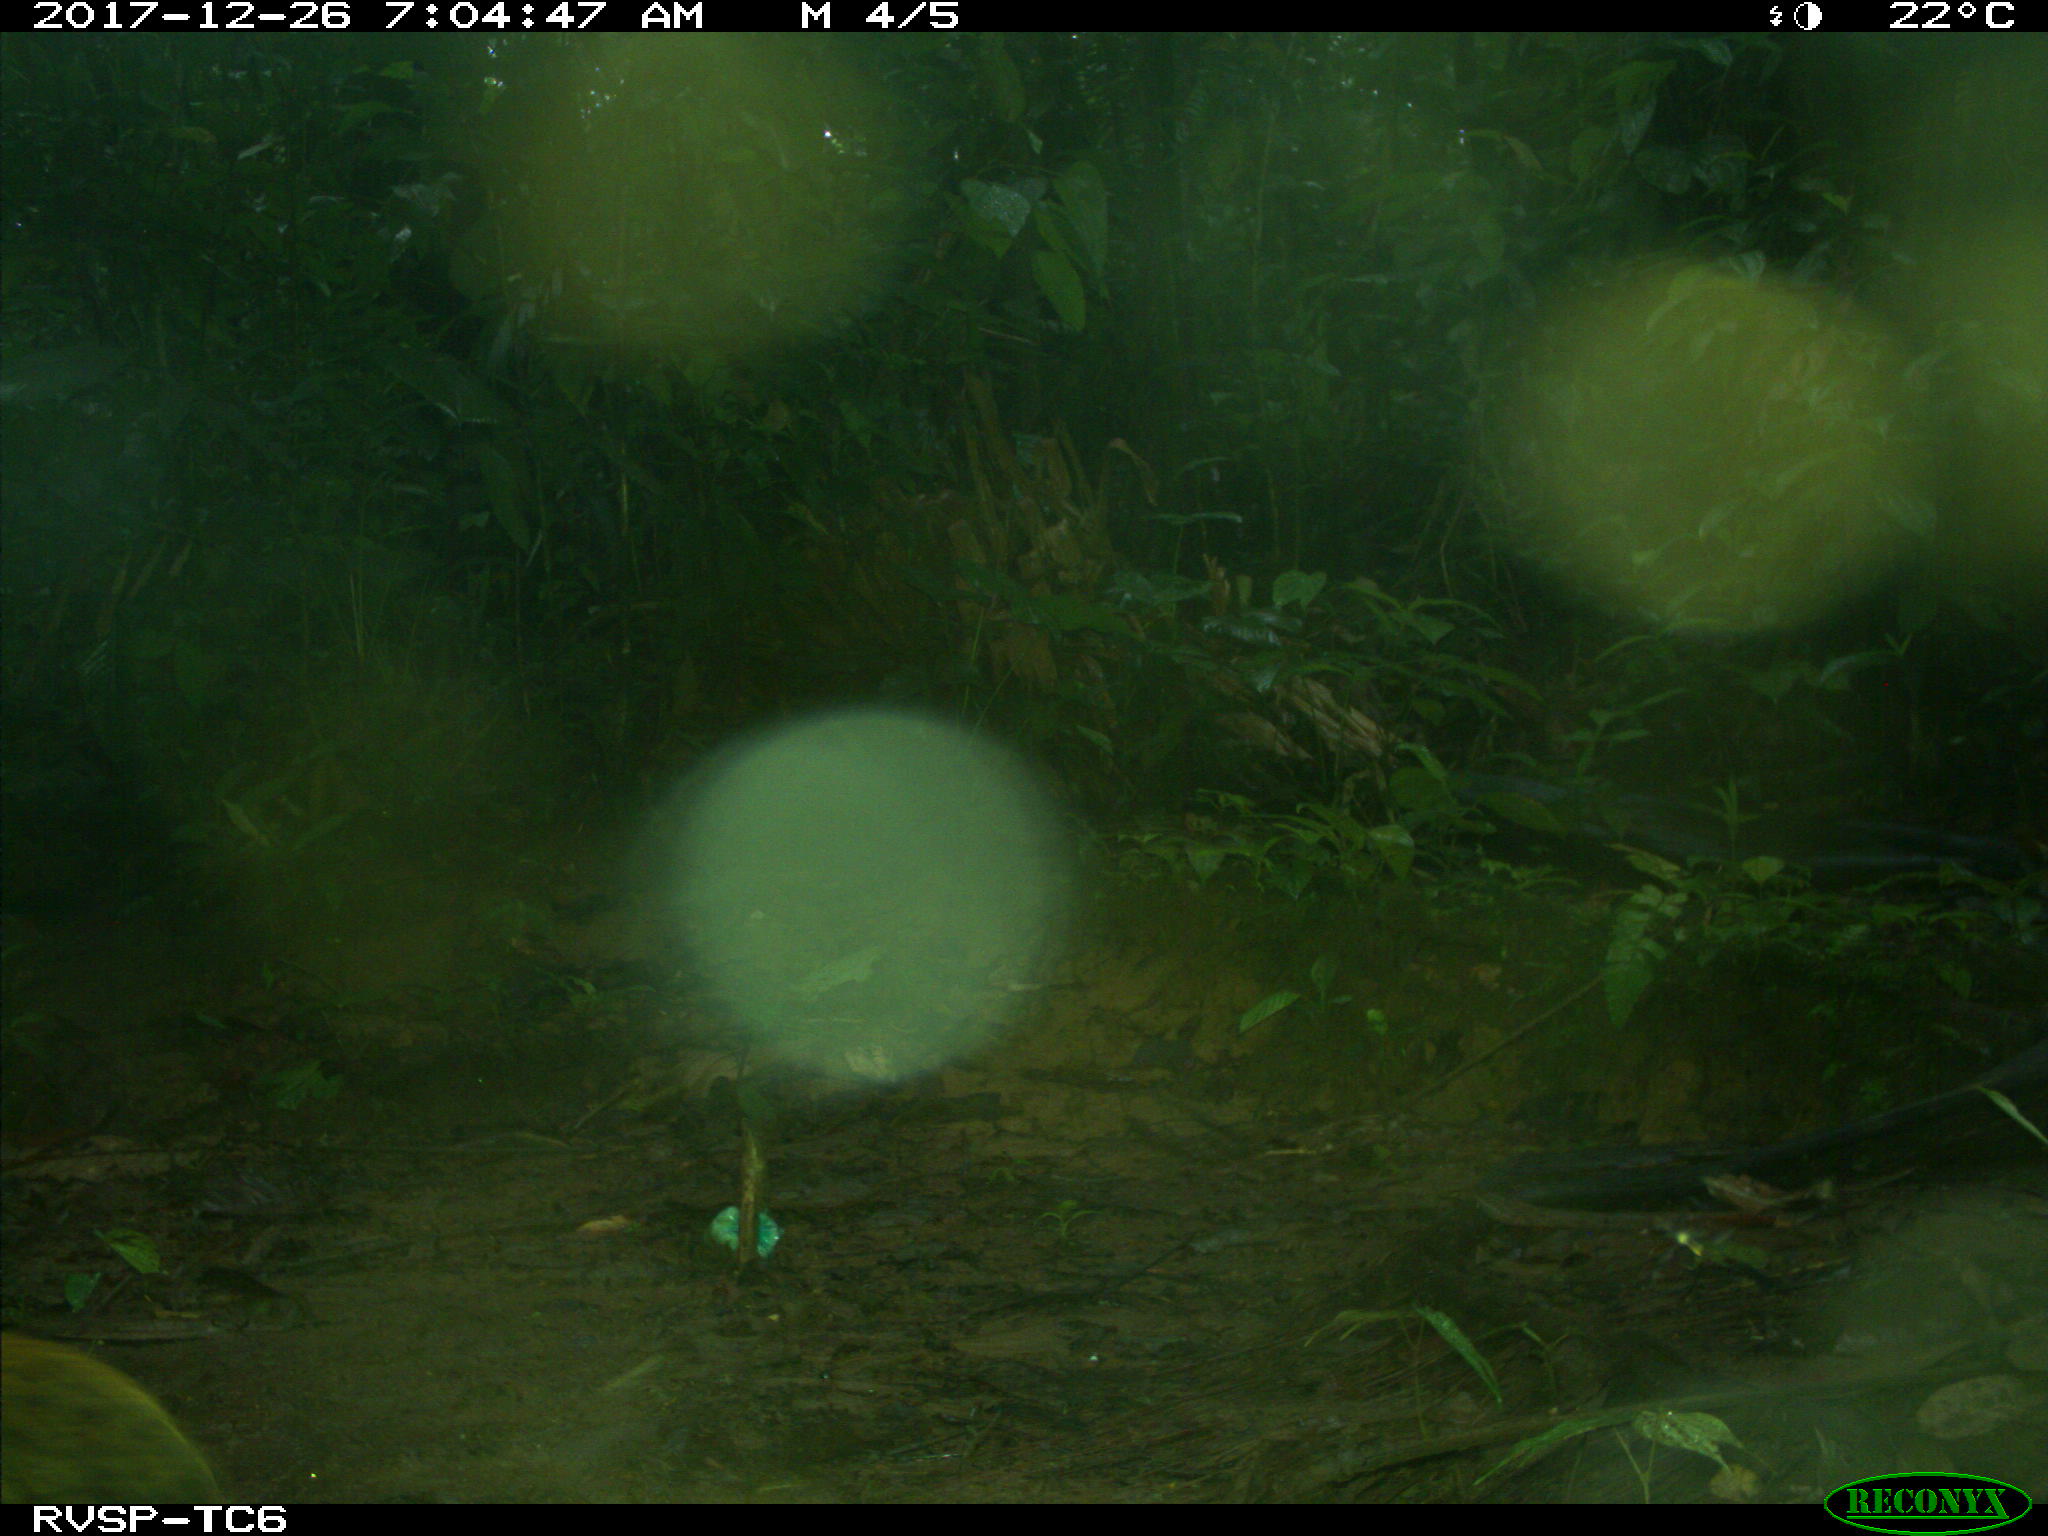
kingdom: Animalia
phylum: Chordata
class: Mammalia
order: Rodentia
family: Dasyproctidae
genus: Dasyprocta
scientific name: Dasyprocta punctata
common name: Central american agouti
